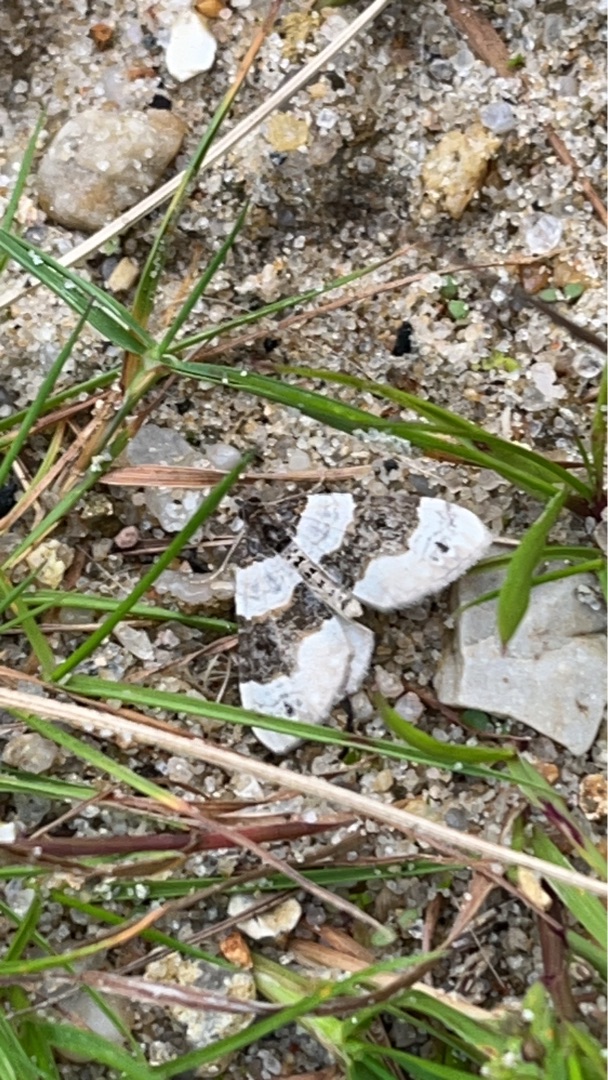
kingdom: Animalia
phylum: Arthropoda
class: Insecta
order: Lepidoptera
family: Geometridae
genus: Cosmorhoe
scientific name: Cosmorhoe ocellata
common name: Snerre-bladmåler
